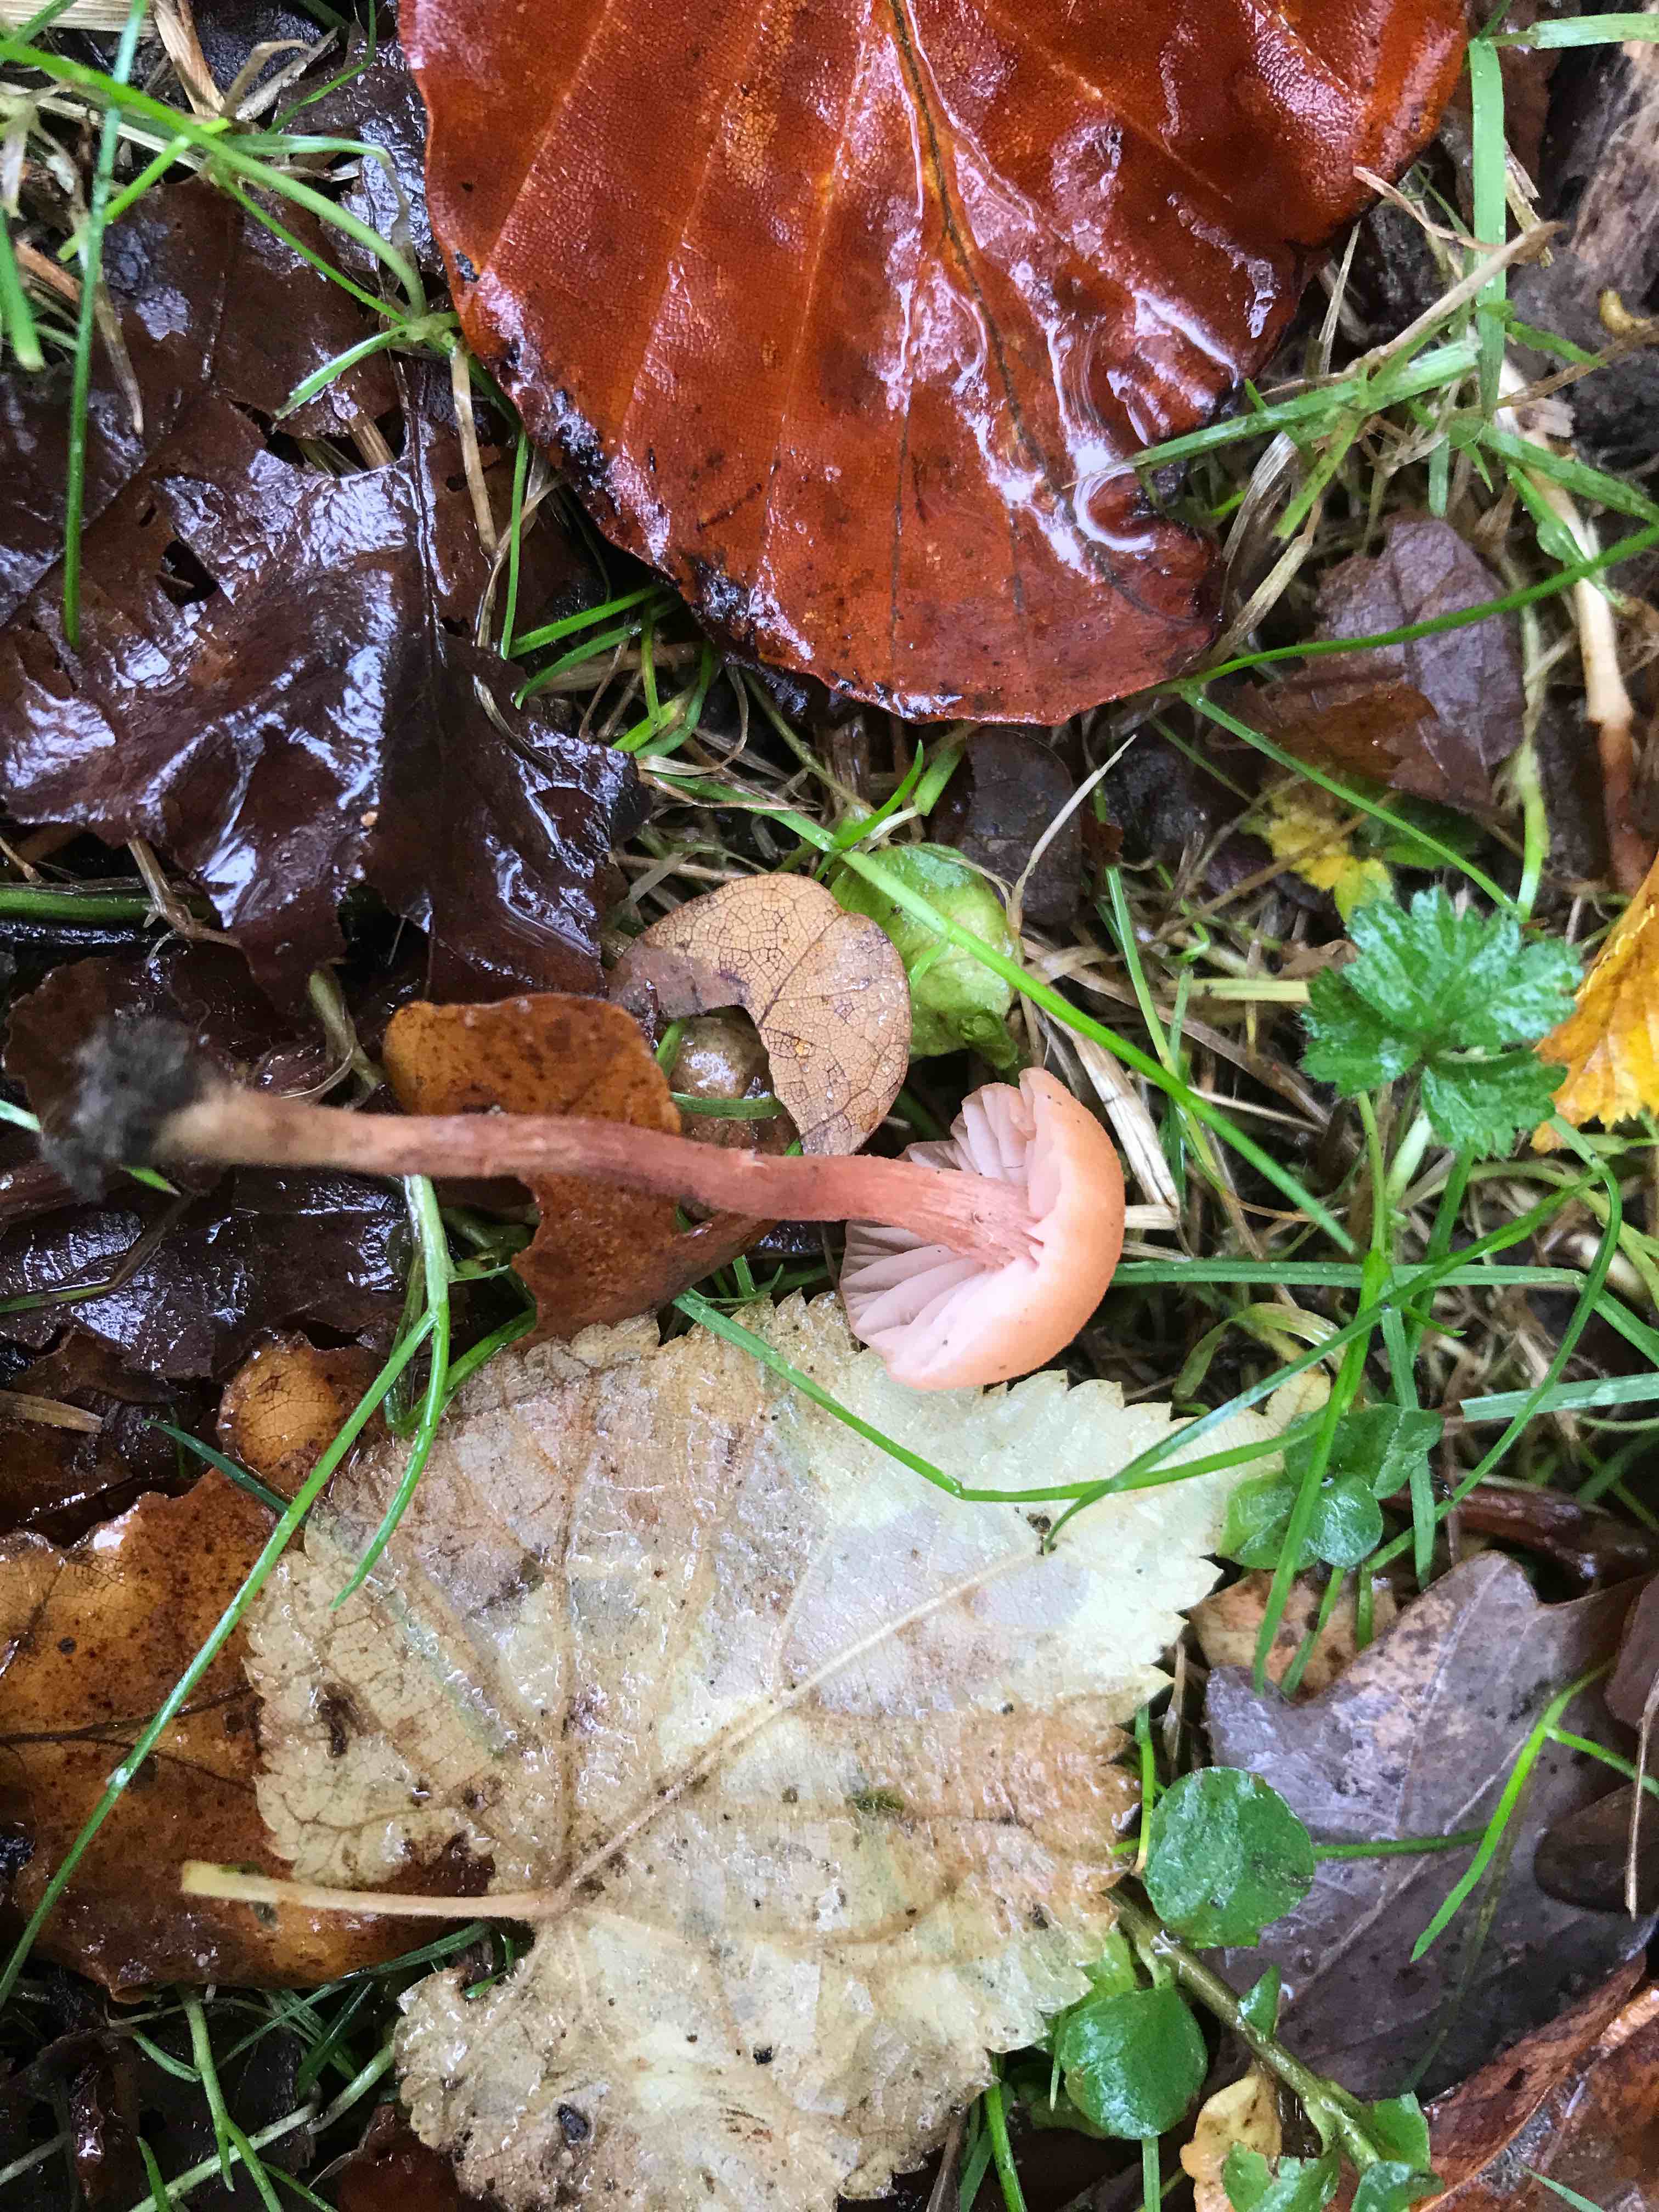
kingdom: Fungi
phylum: Basidiomycota
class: Agaricomycetes
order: Agaricales
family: Hydnangiaceae
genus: Laccaria
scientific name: Laccaria laccata
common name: rød ametysthat
